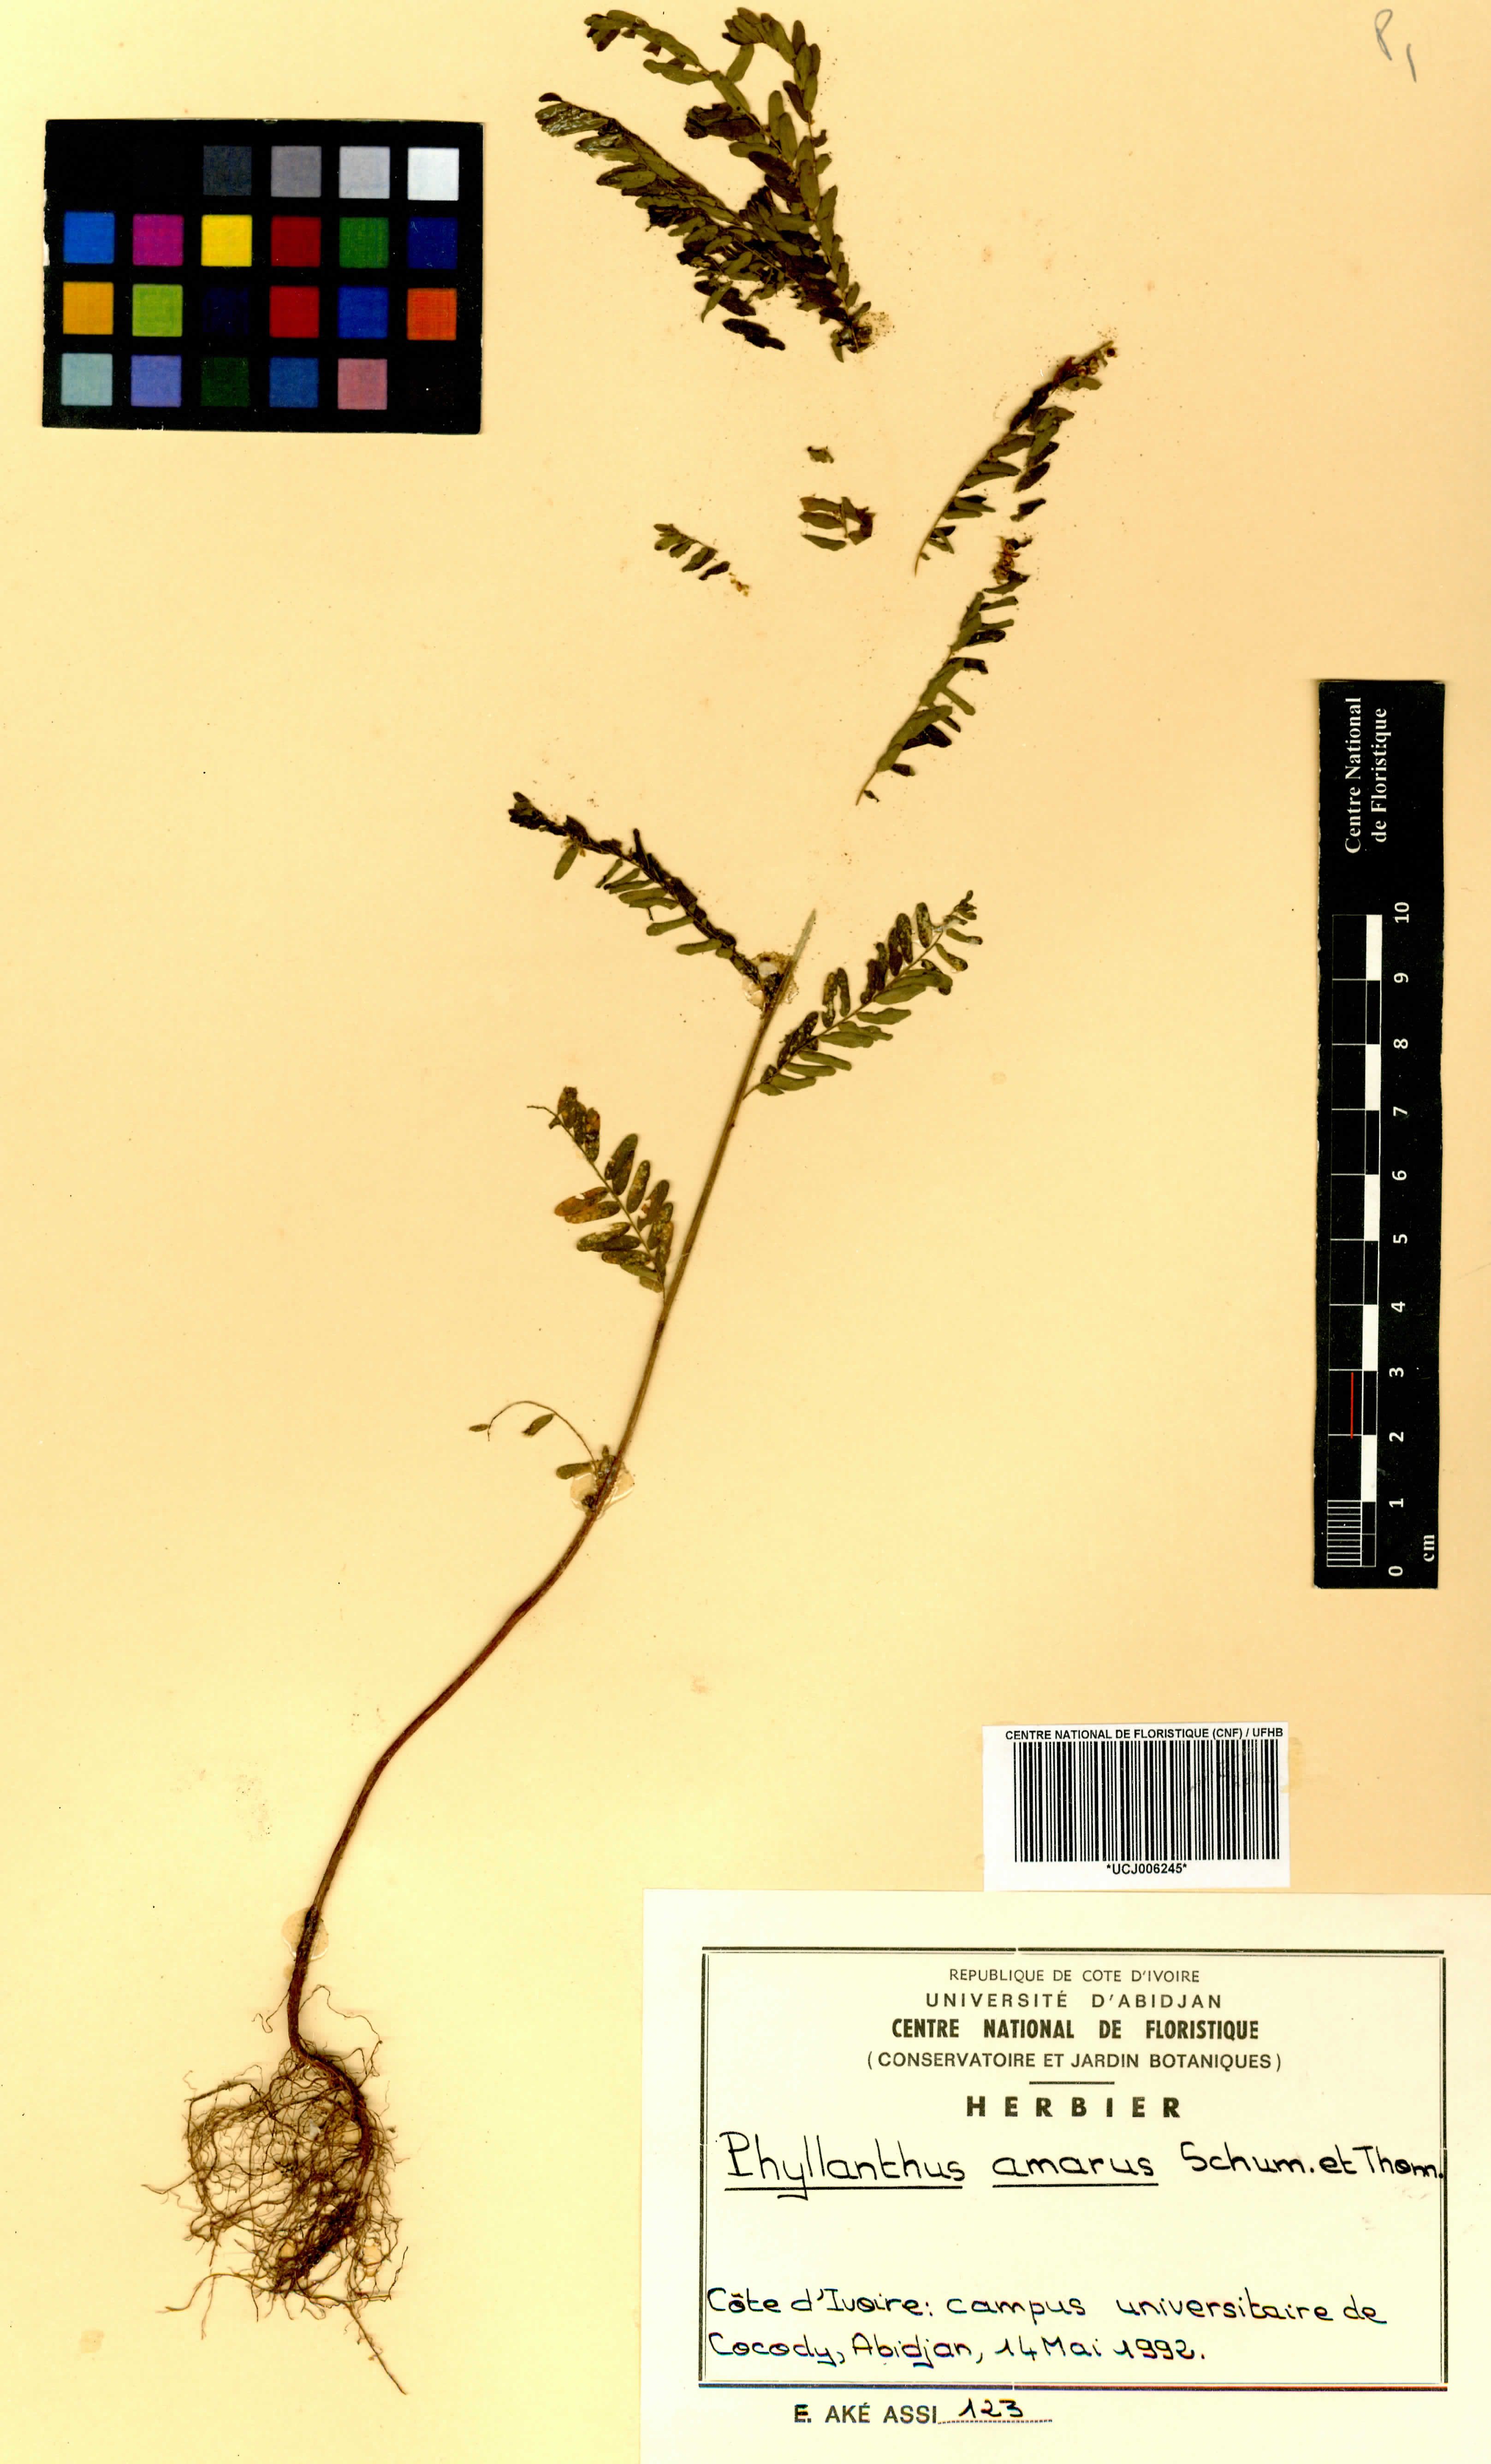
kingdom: Plantae
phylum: Tracheophyta
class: Magnoliopsida
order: Malpighiales
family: Phyllanthaceae
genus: Phyllanthus
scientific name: Phyllanthus amarus
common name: Carry me seed
